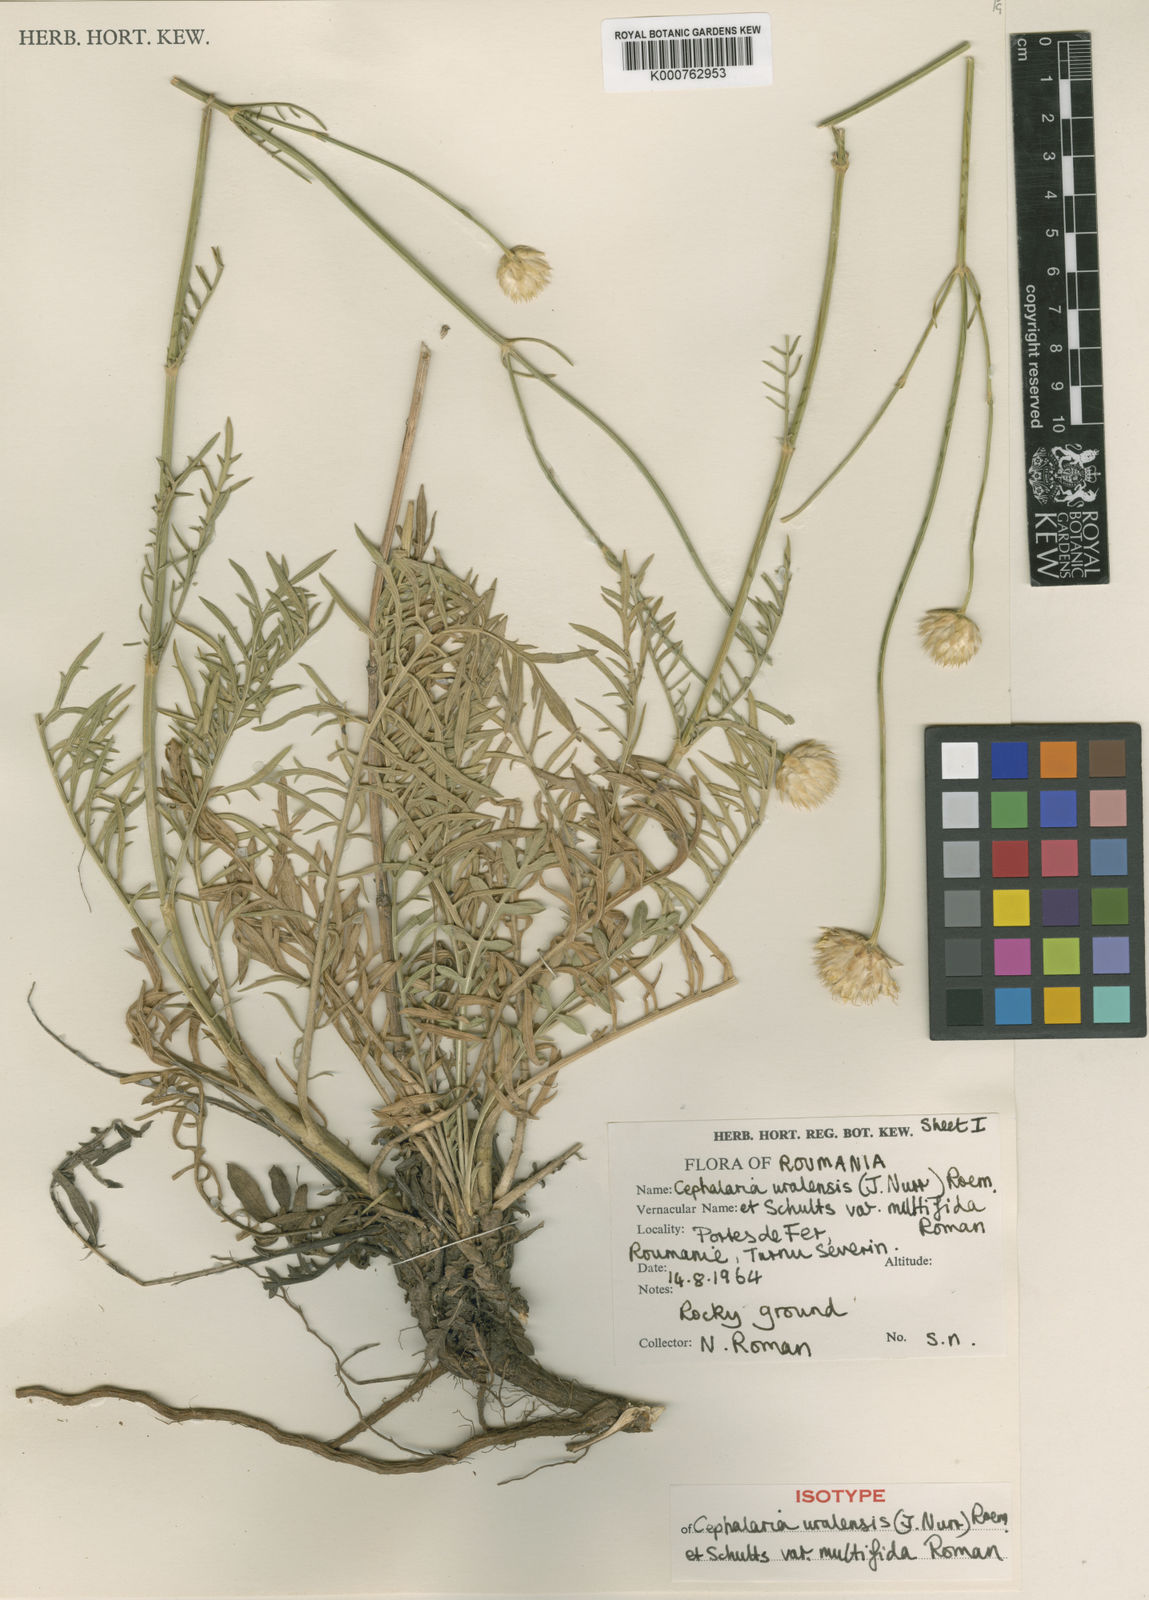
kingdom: Plantae
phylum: Tracheophyta
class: Magnoliopsida
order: Dipsacales
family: Caprifoliaceae
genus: Cephalaria
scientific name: Cephalaria uralensis
